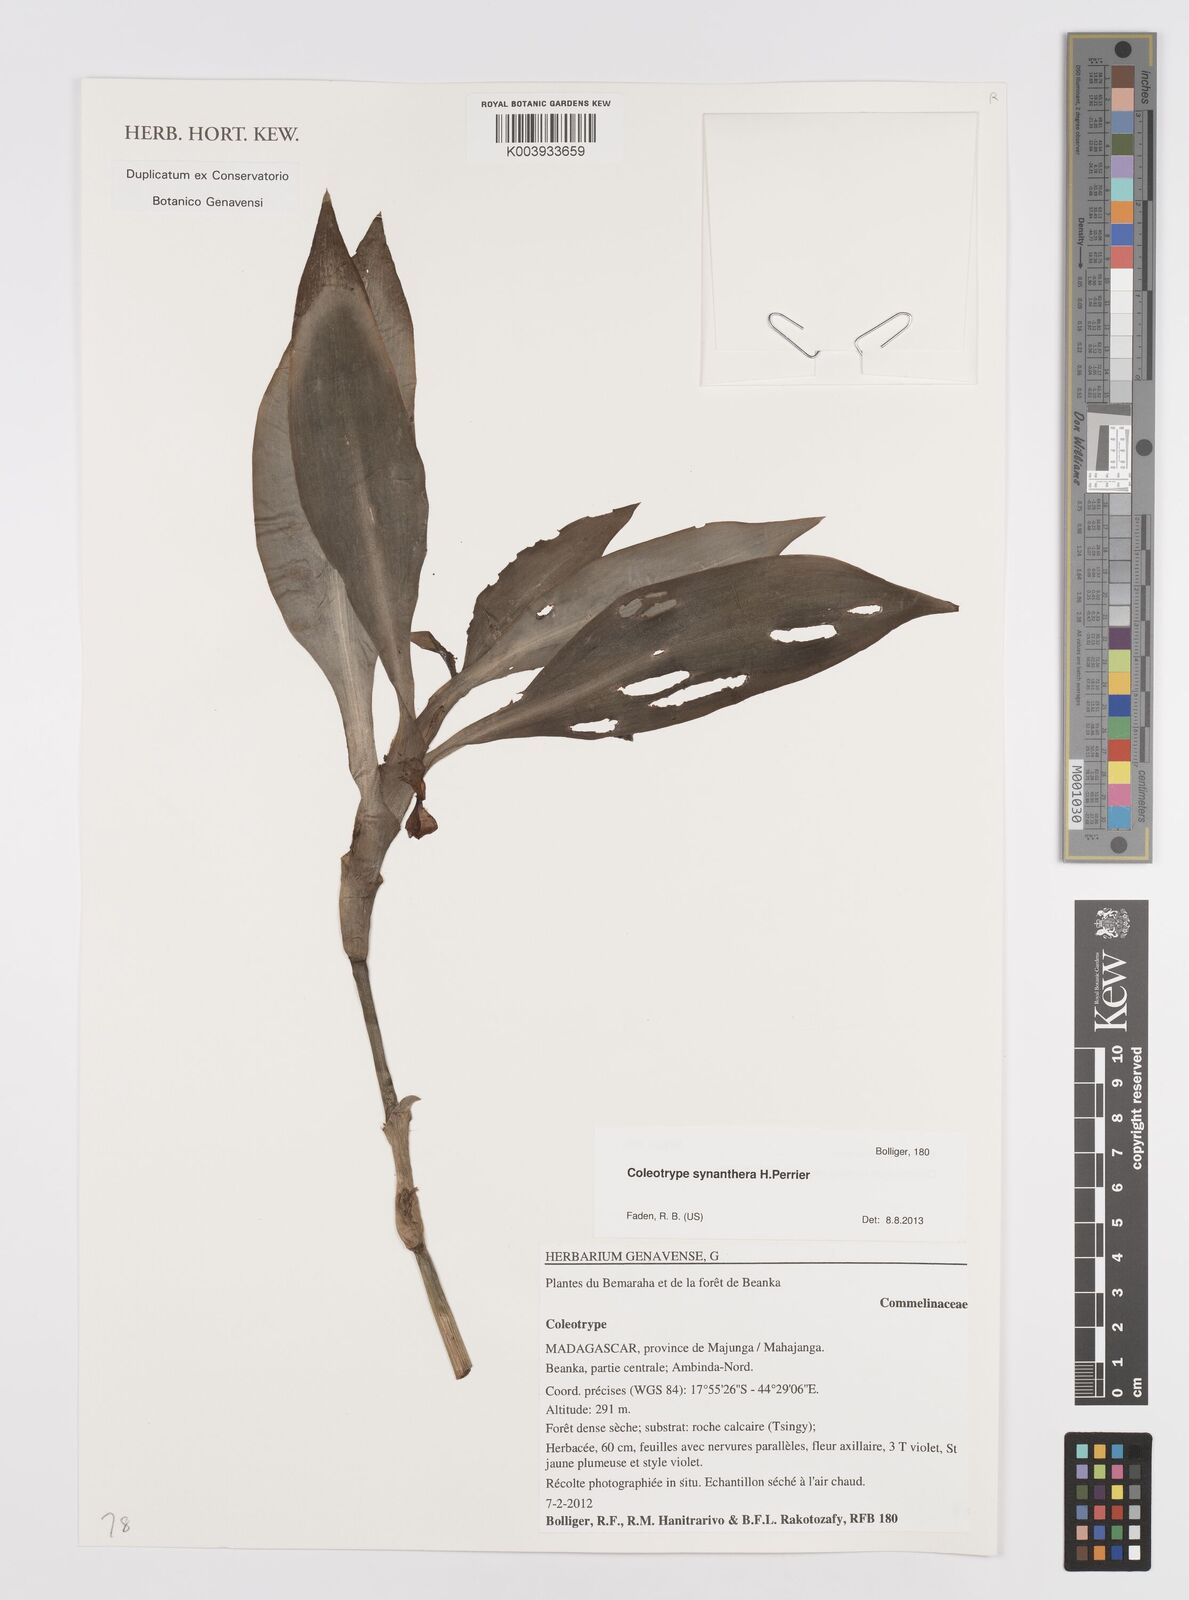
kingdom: Plantae
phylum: Tracheophyta
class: Liliopsida
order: Commelinales
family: Commelinaceae
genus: Coleotrype
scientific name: Coleotrype synanthera
